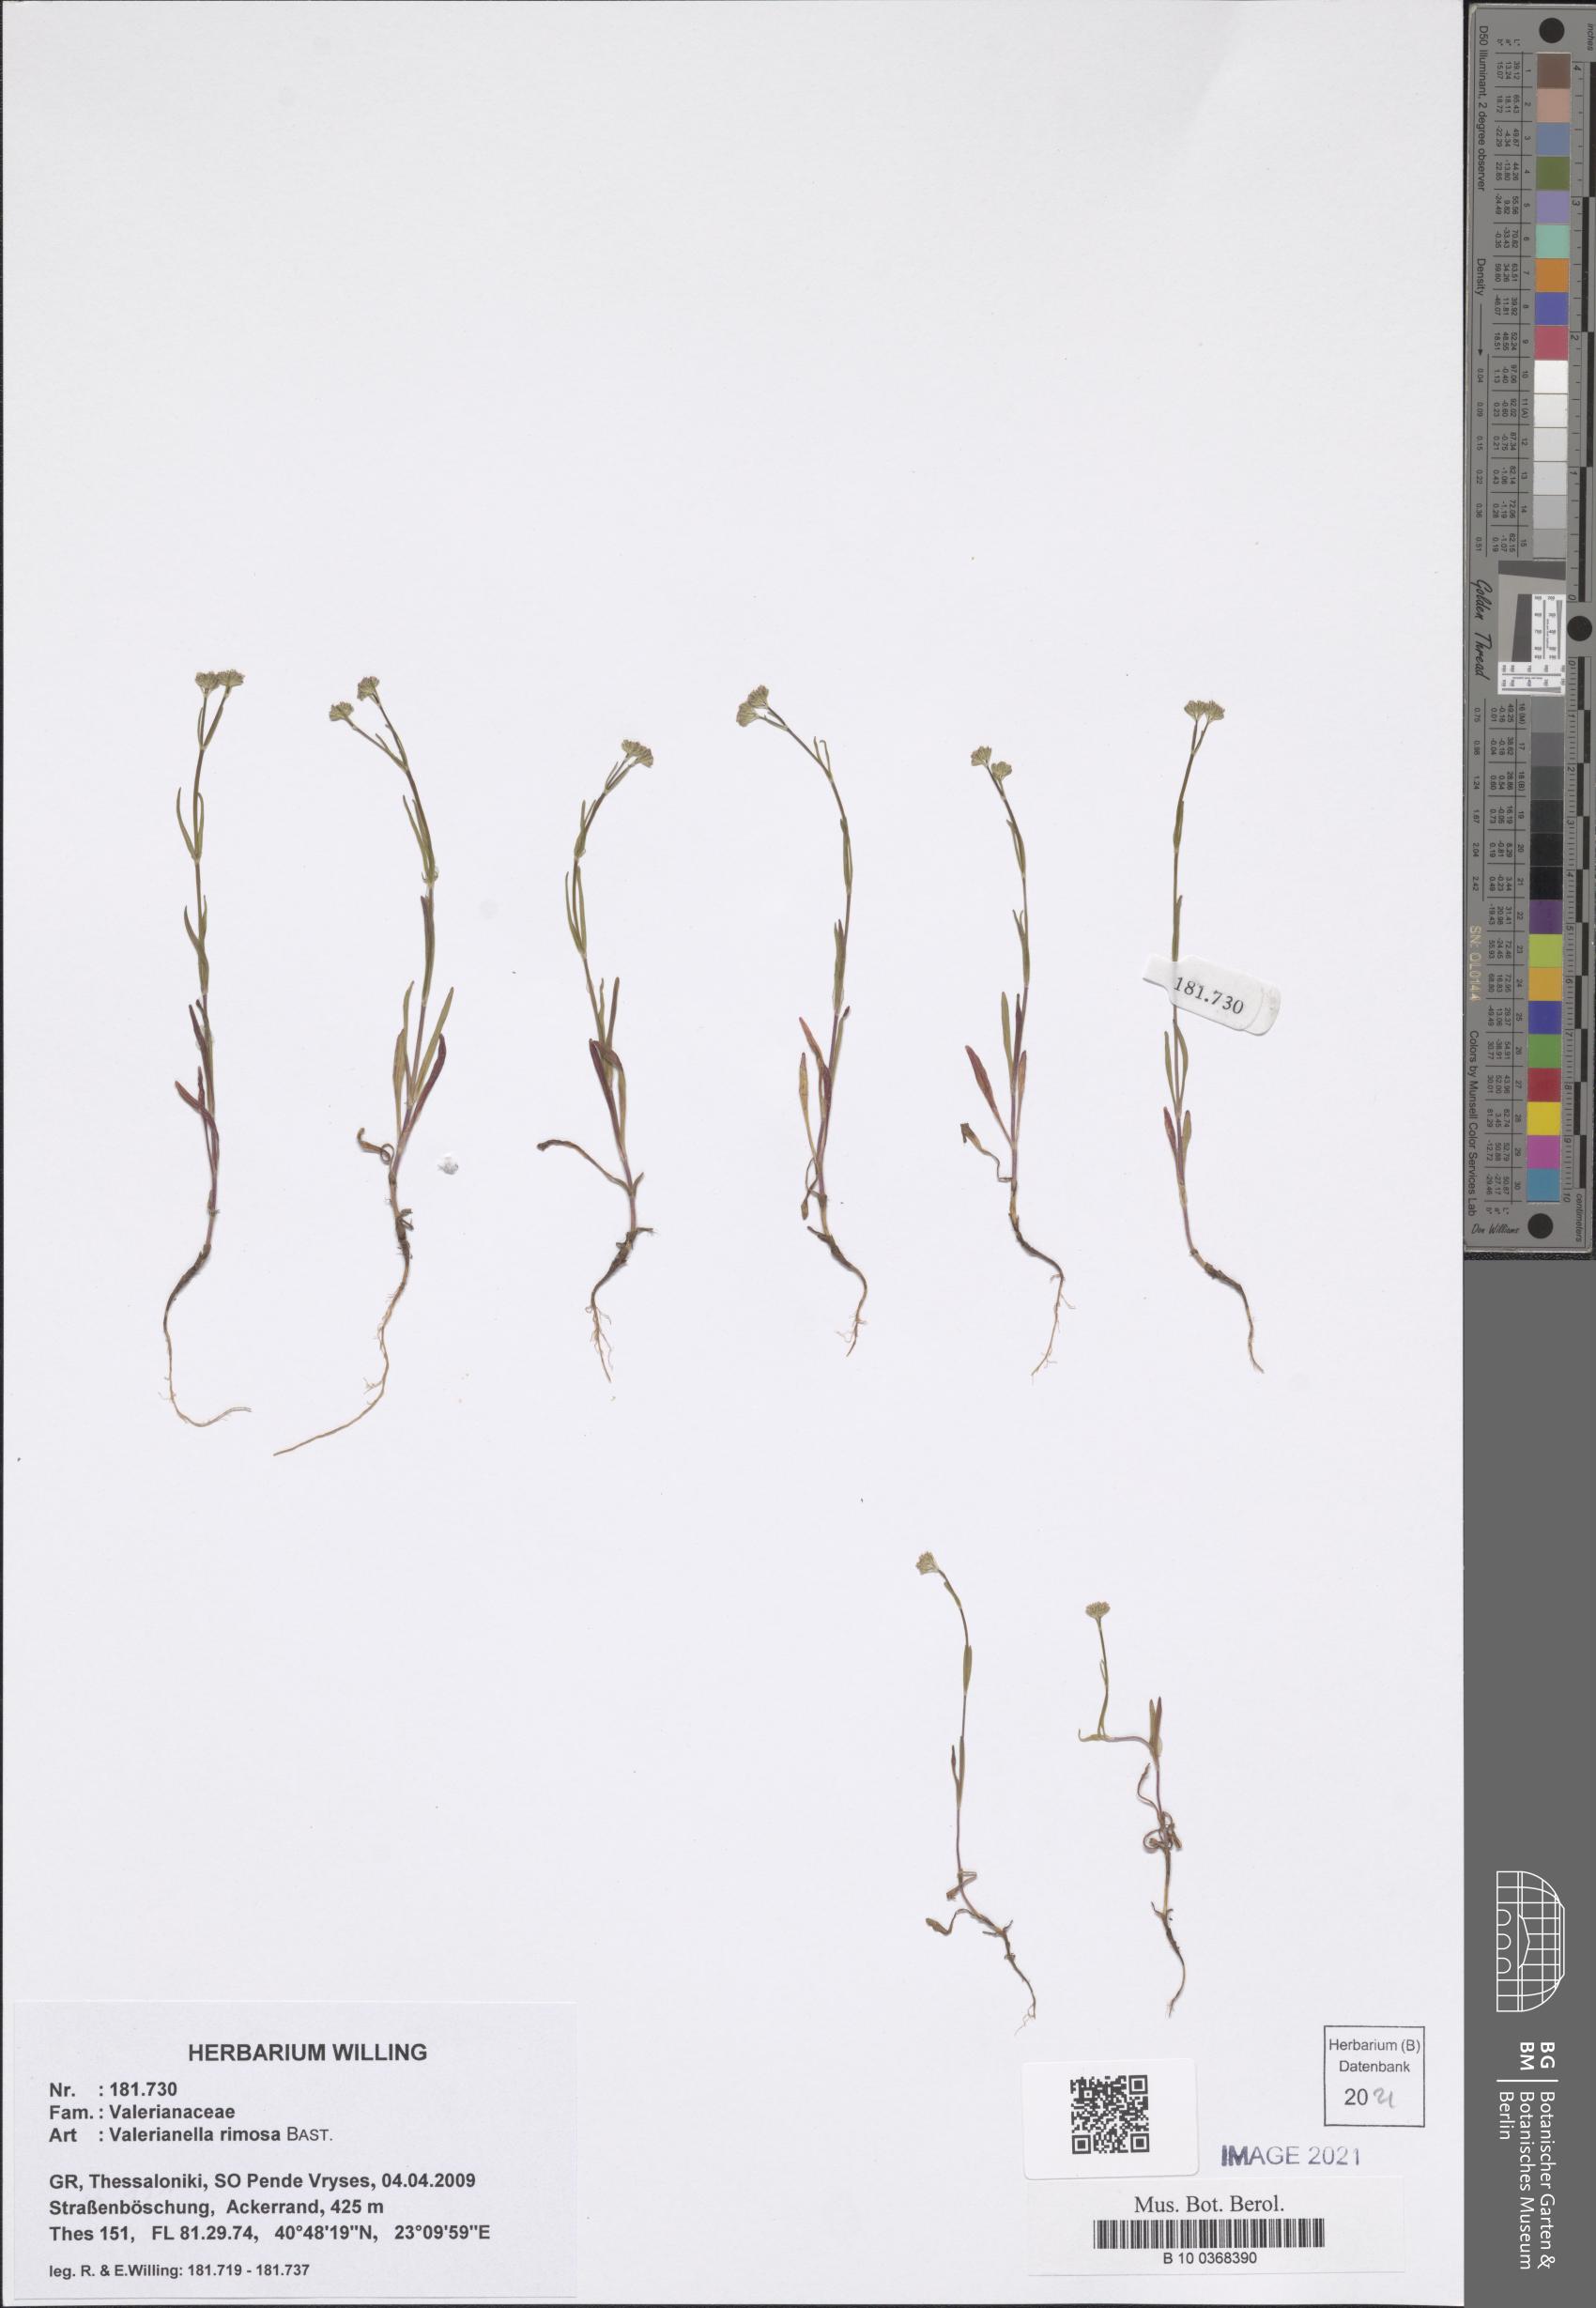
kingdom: Plantae
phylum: Tracheophyta
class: Magnoliopsida
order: Dipsacales
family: Caprifoliaceae
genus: Valerianella
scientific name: Valerianella rimosa
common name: Broad-fruited cornsalad
